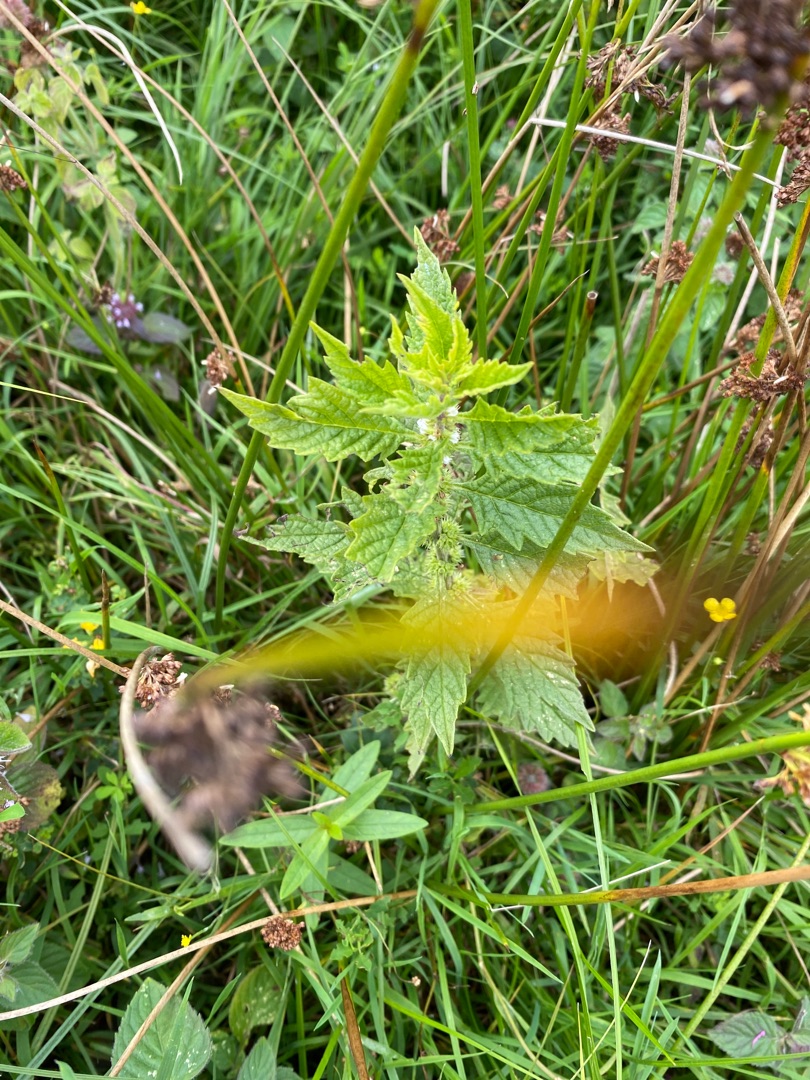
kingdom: Plantae
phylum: Tracheophyta
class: Magnoliopsida
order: Lamiales
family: Lamiaceae
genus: Lycopus
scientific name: Lycopus europaeus
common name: Sværtevæld
